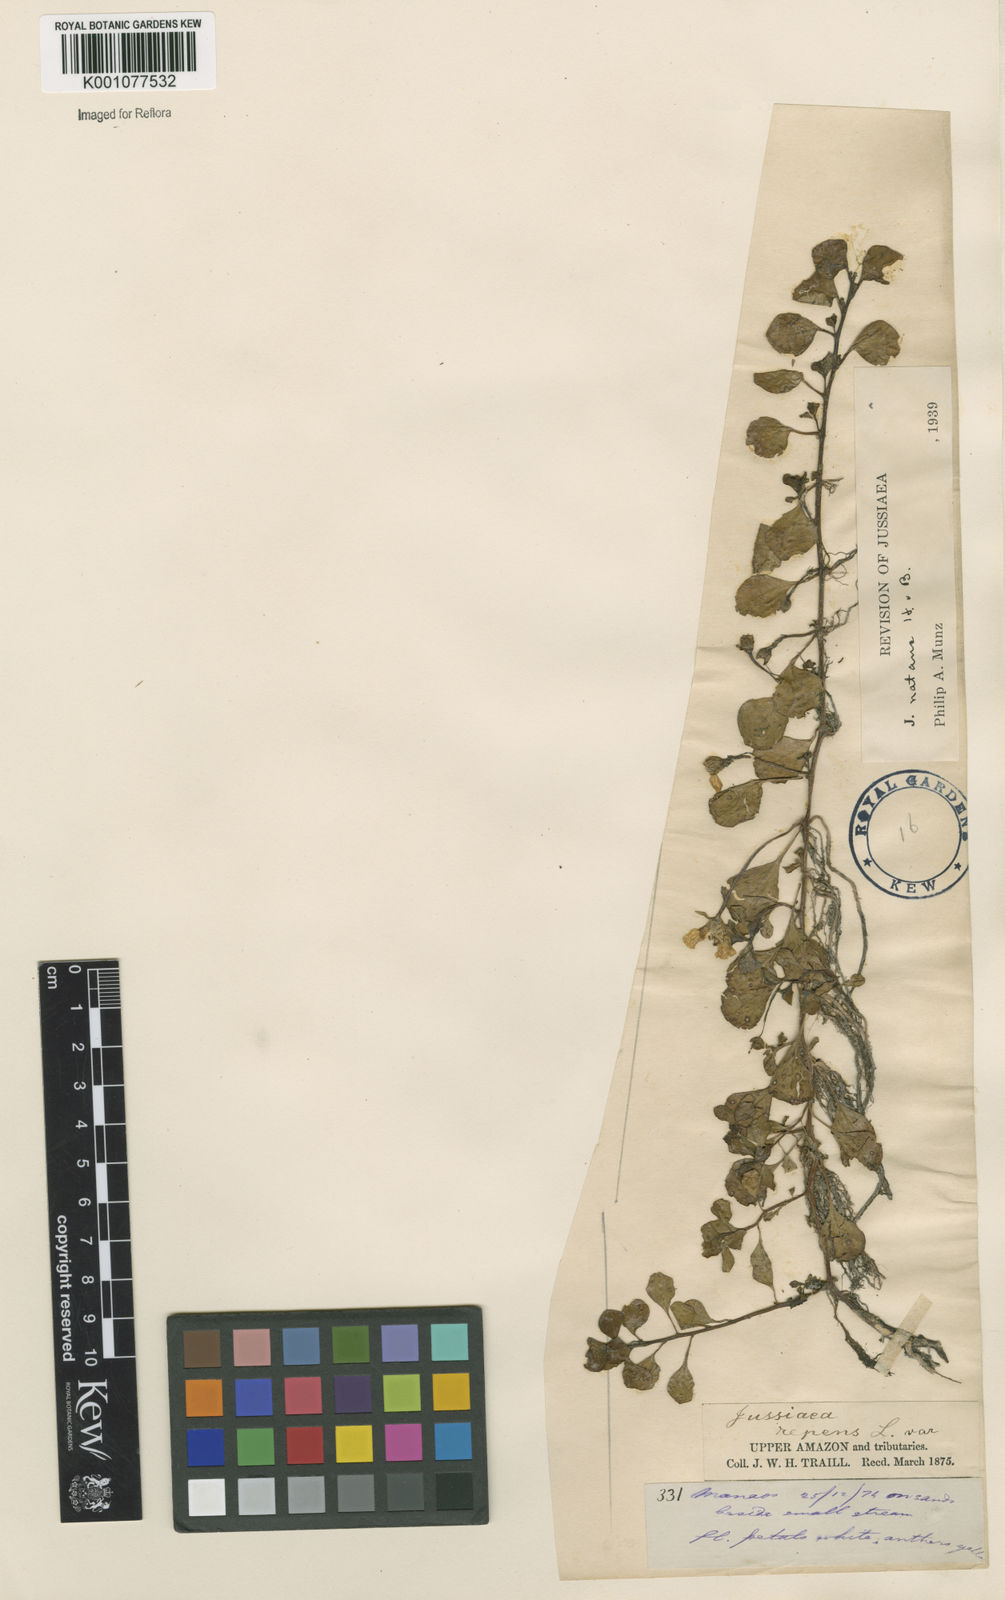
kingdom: Plantae
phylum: Tracheophyta
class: Magnoliopsida
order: Myrtales
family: Onagraceae
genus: Ludwigia
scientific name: Ludwigia helminthorrhiza
